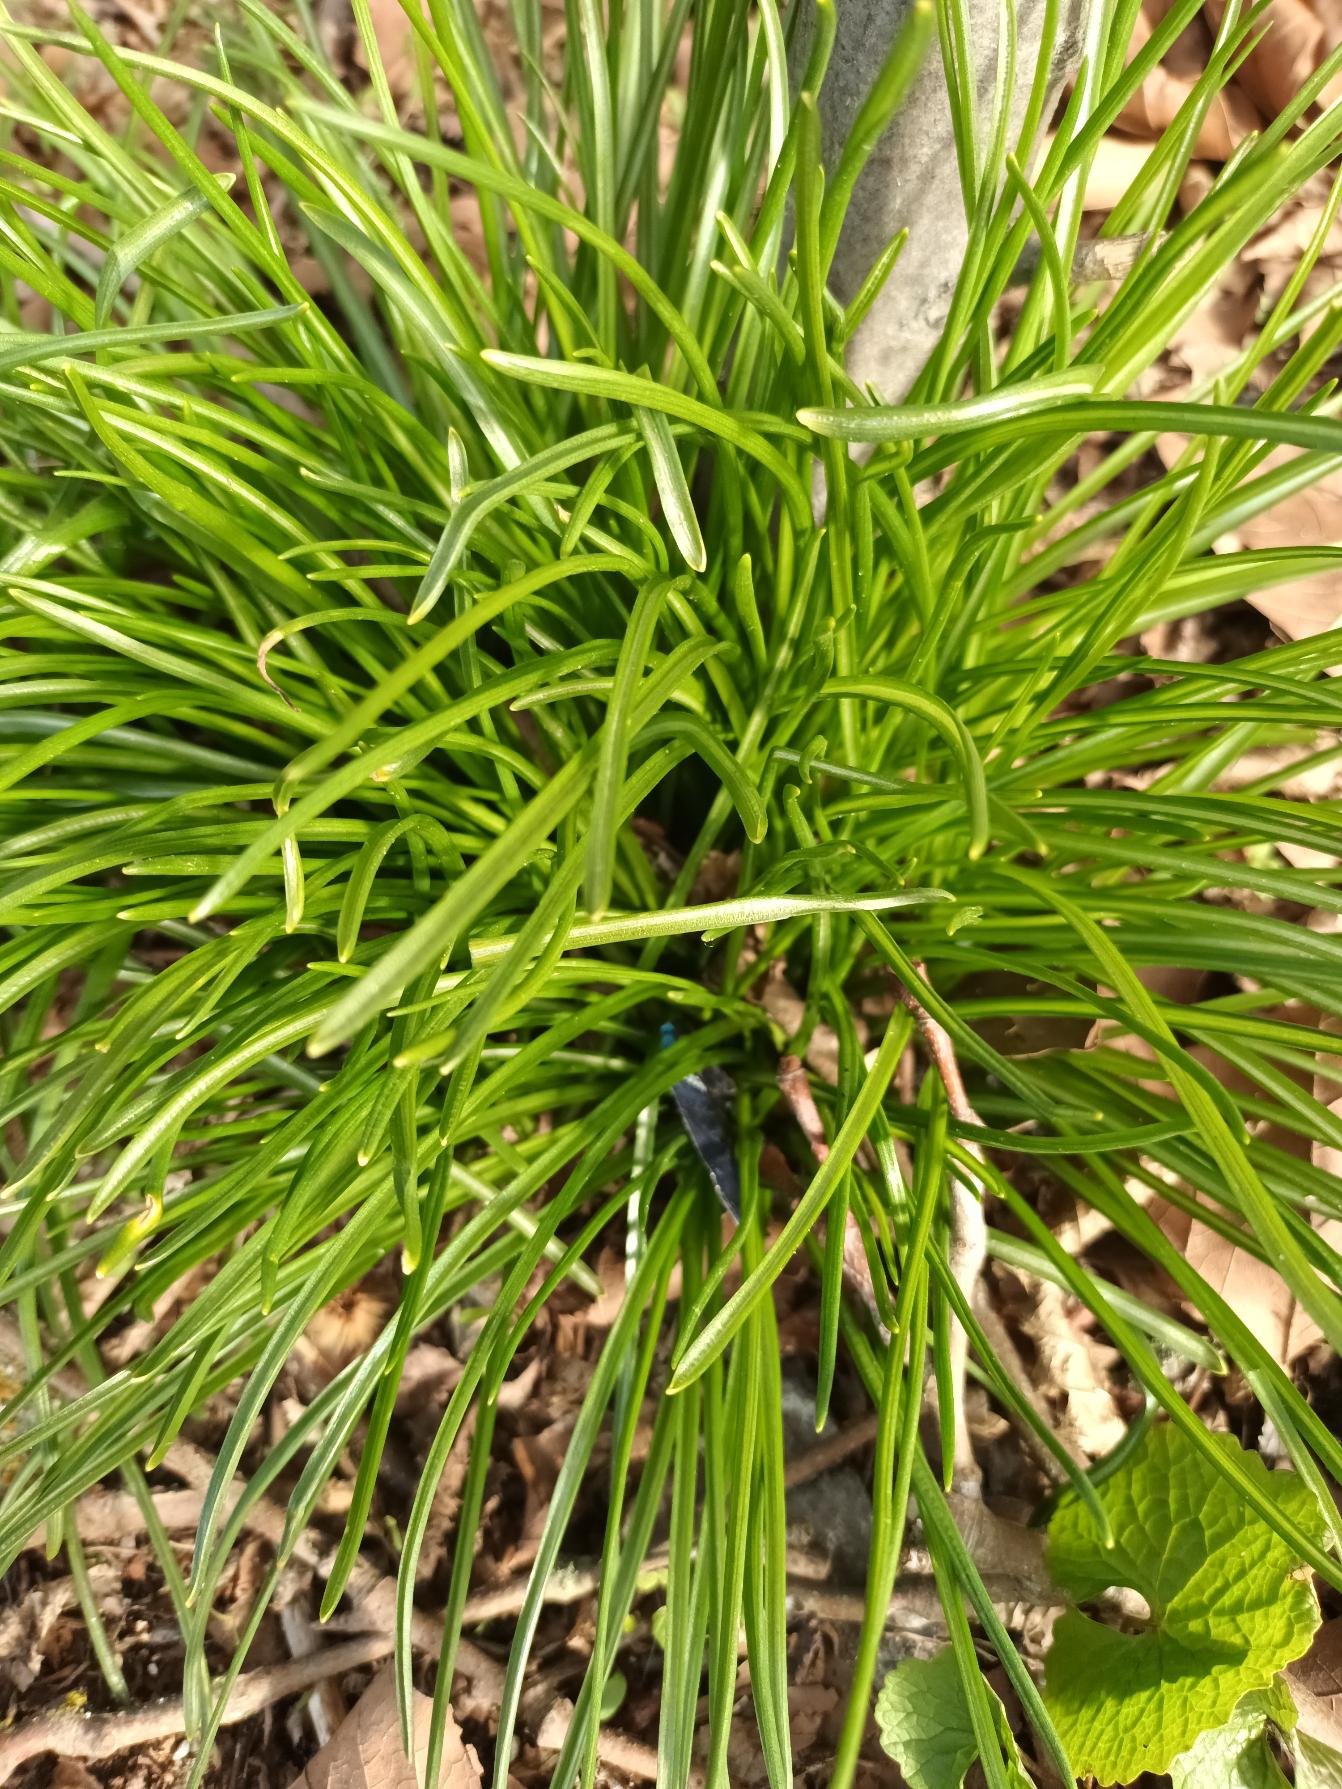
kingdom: Plantae
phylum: Tracheophyta
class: Liliopsida
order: Asparagales
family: Asparagaceae
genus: Ornithogalum
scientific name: Ornithogalum umbellatum
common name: Kost-fuglemælk
